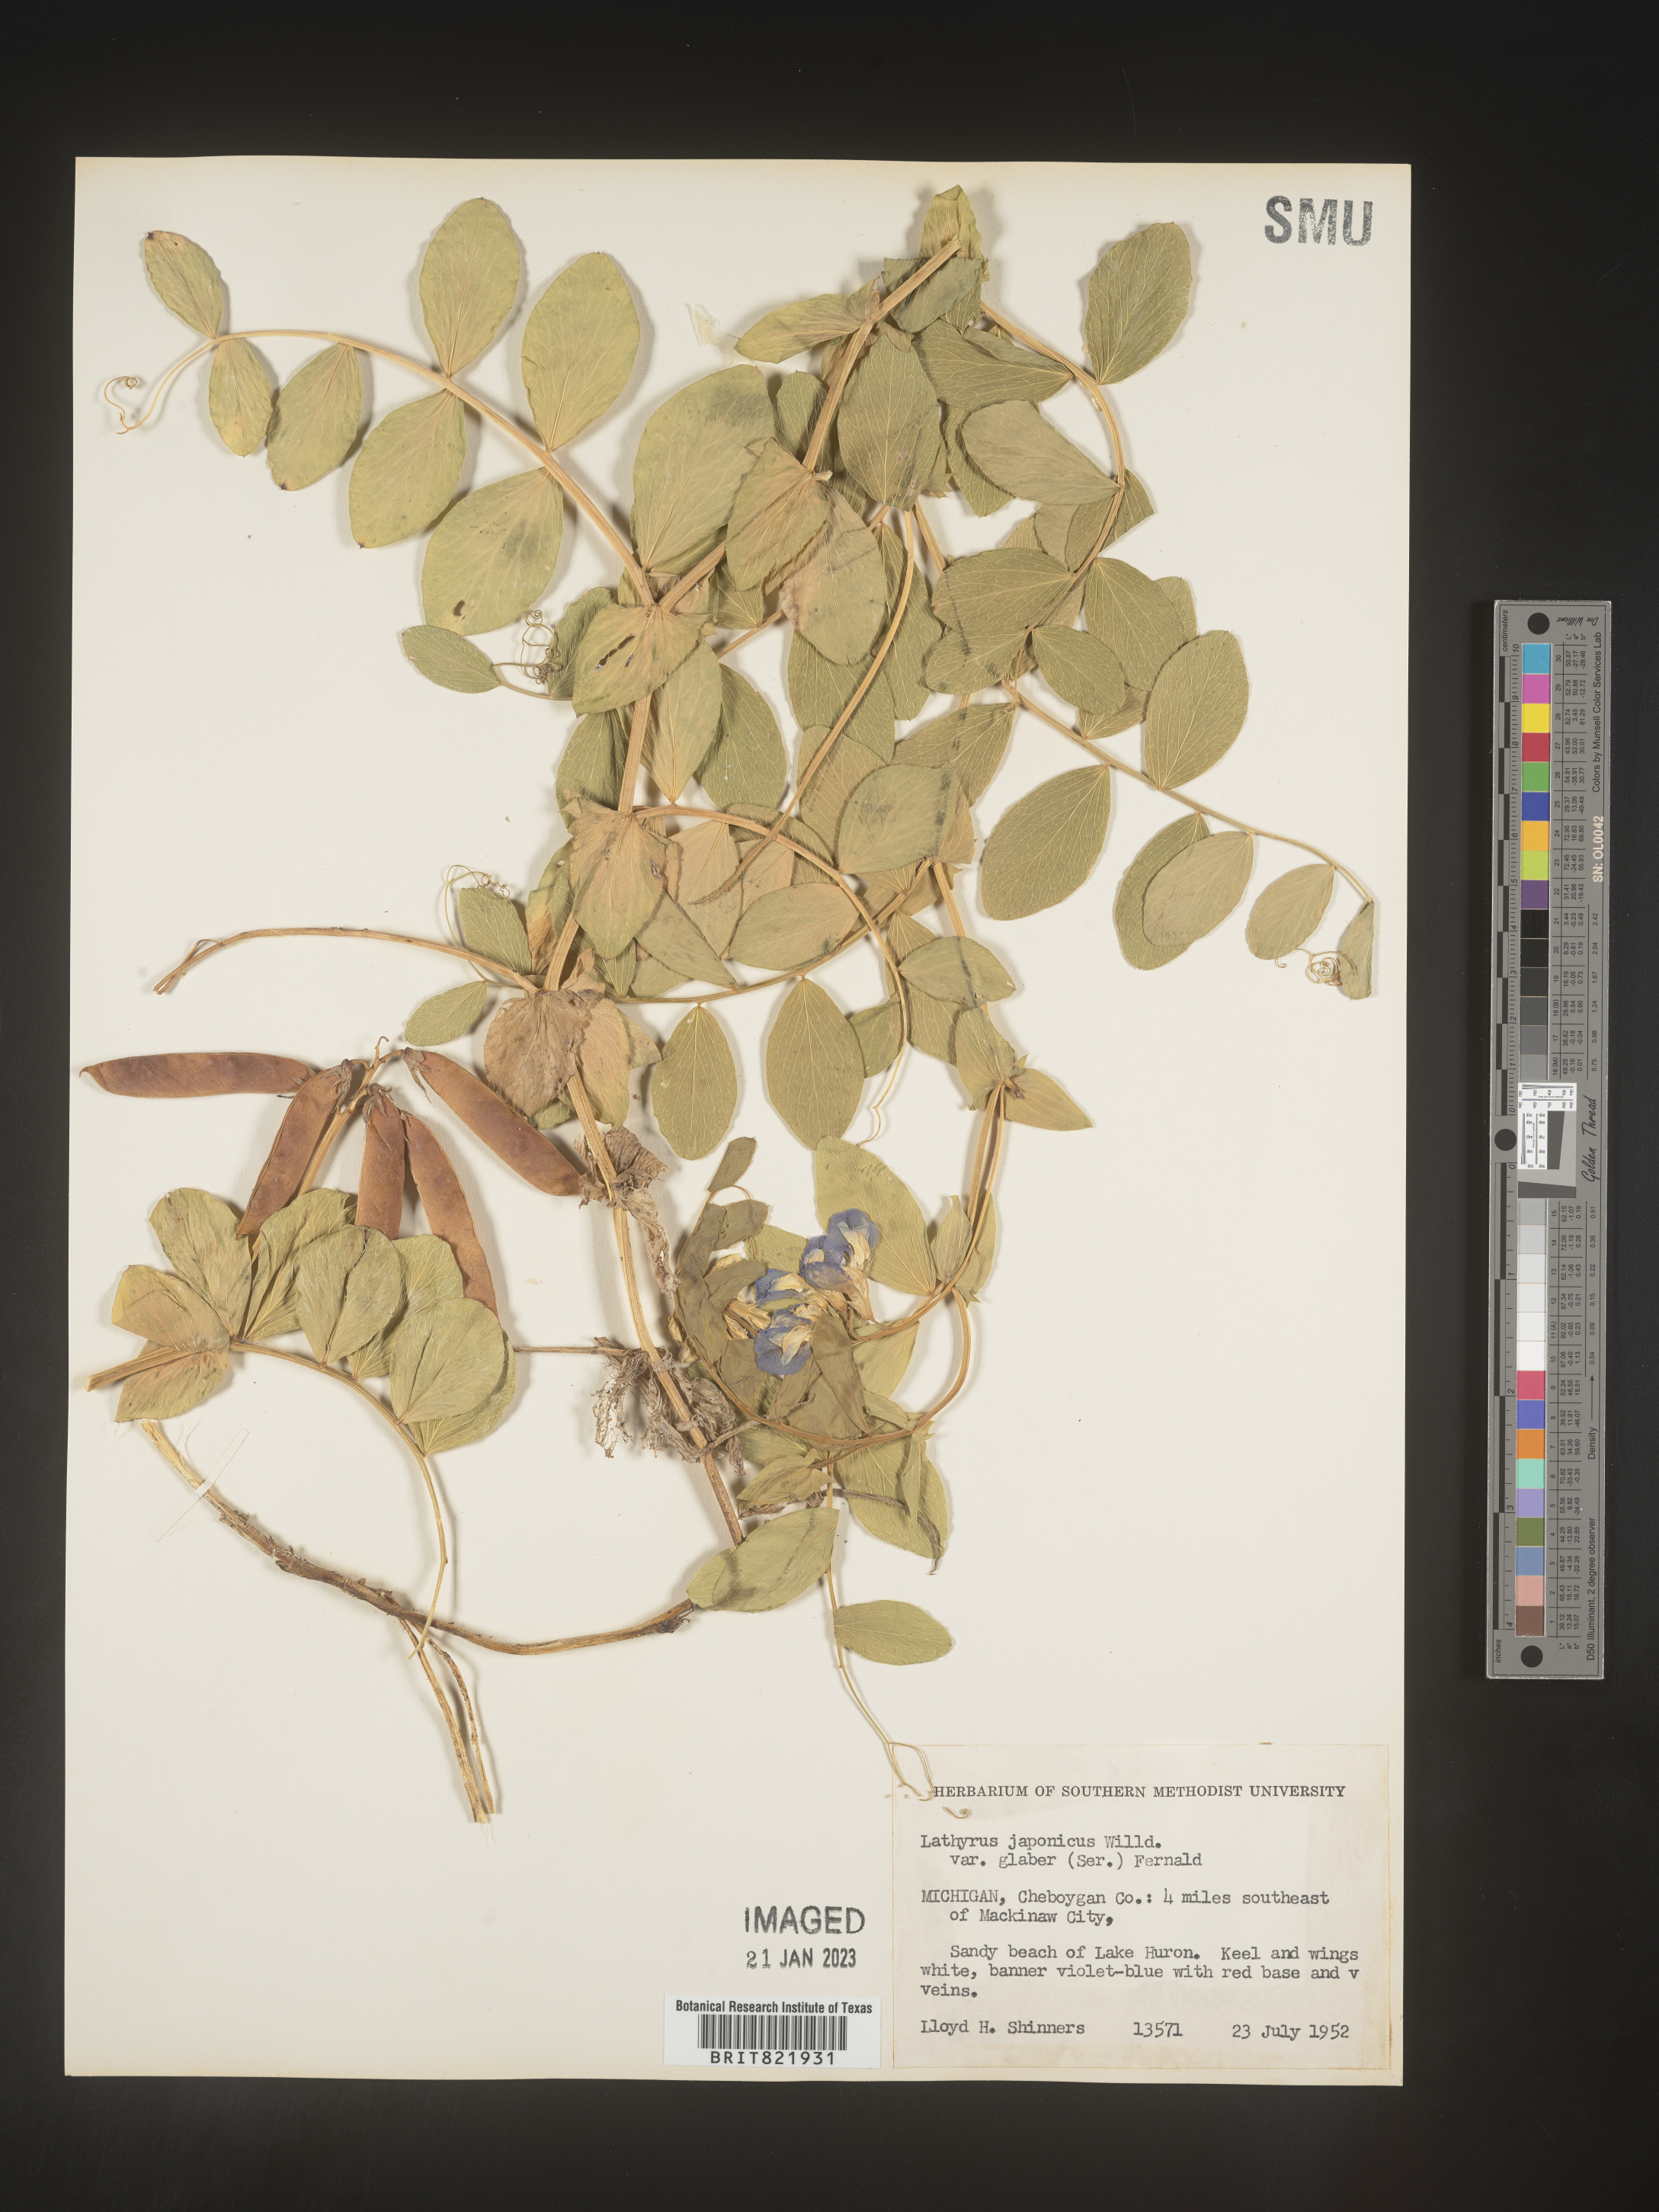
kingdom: Plantae
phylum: Tracheophyta
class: Magnoliopsida
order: Fabales
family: Fabaceae
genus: Lathyrus
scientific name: Lathyrus
